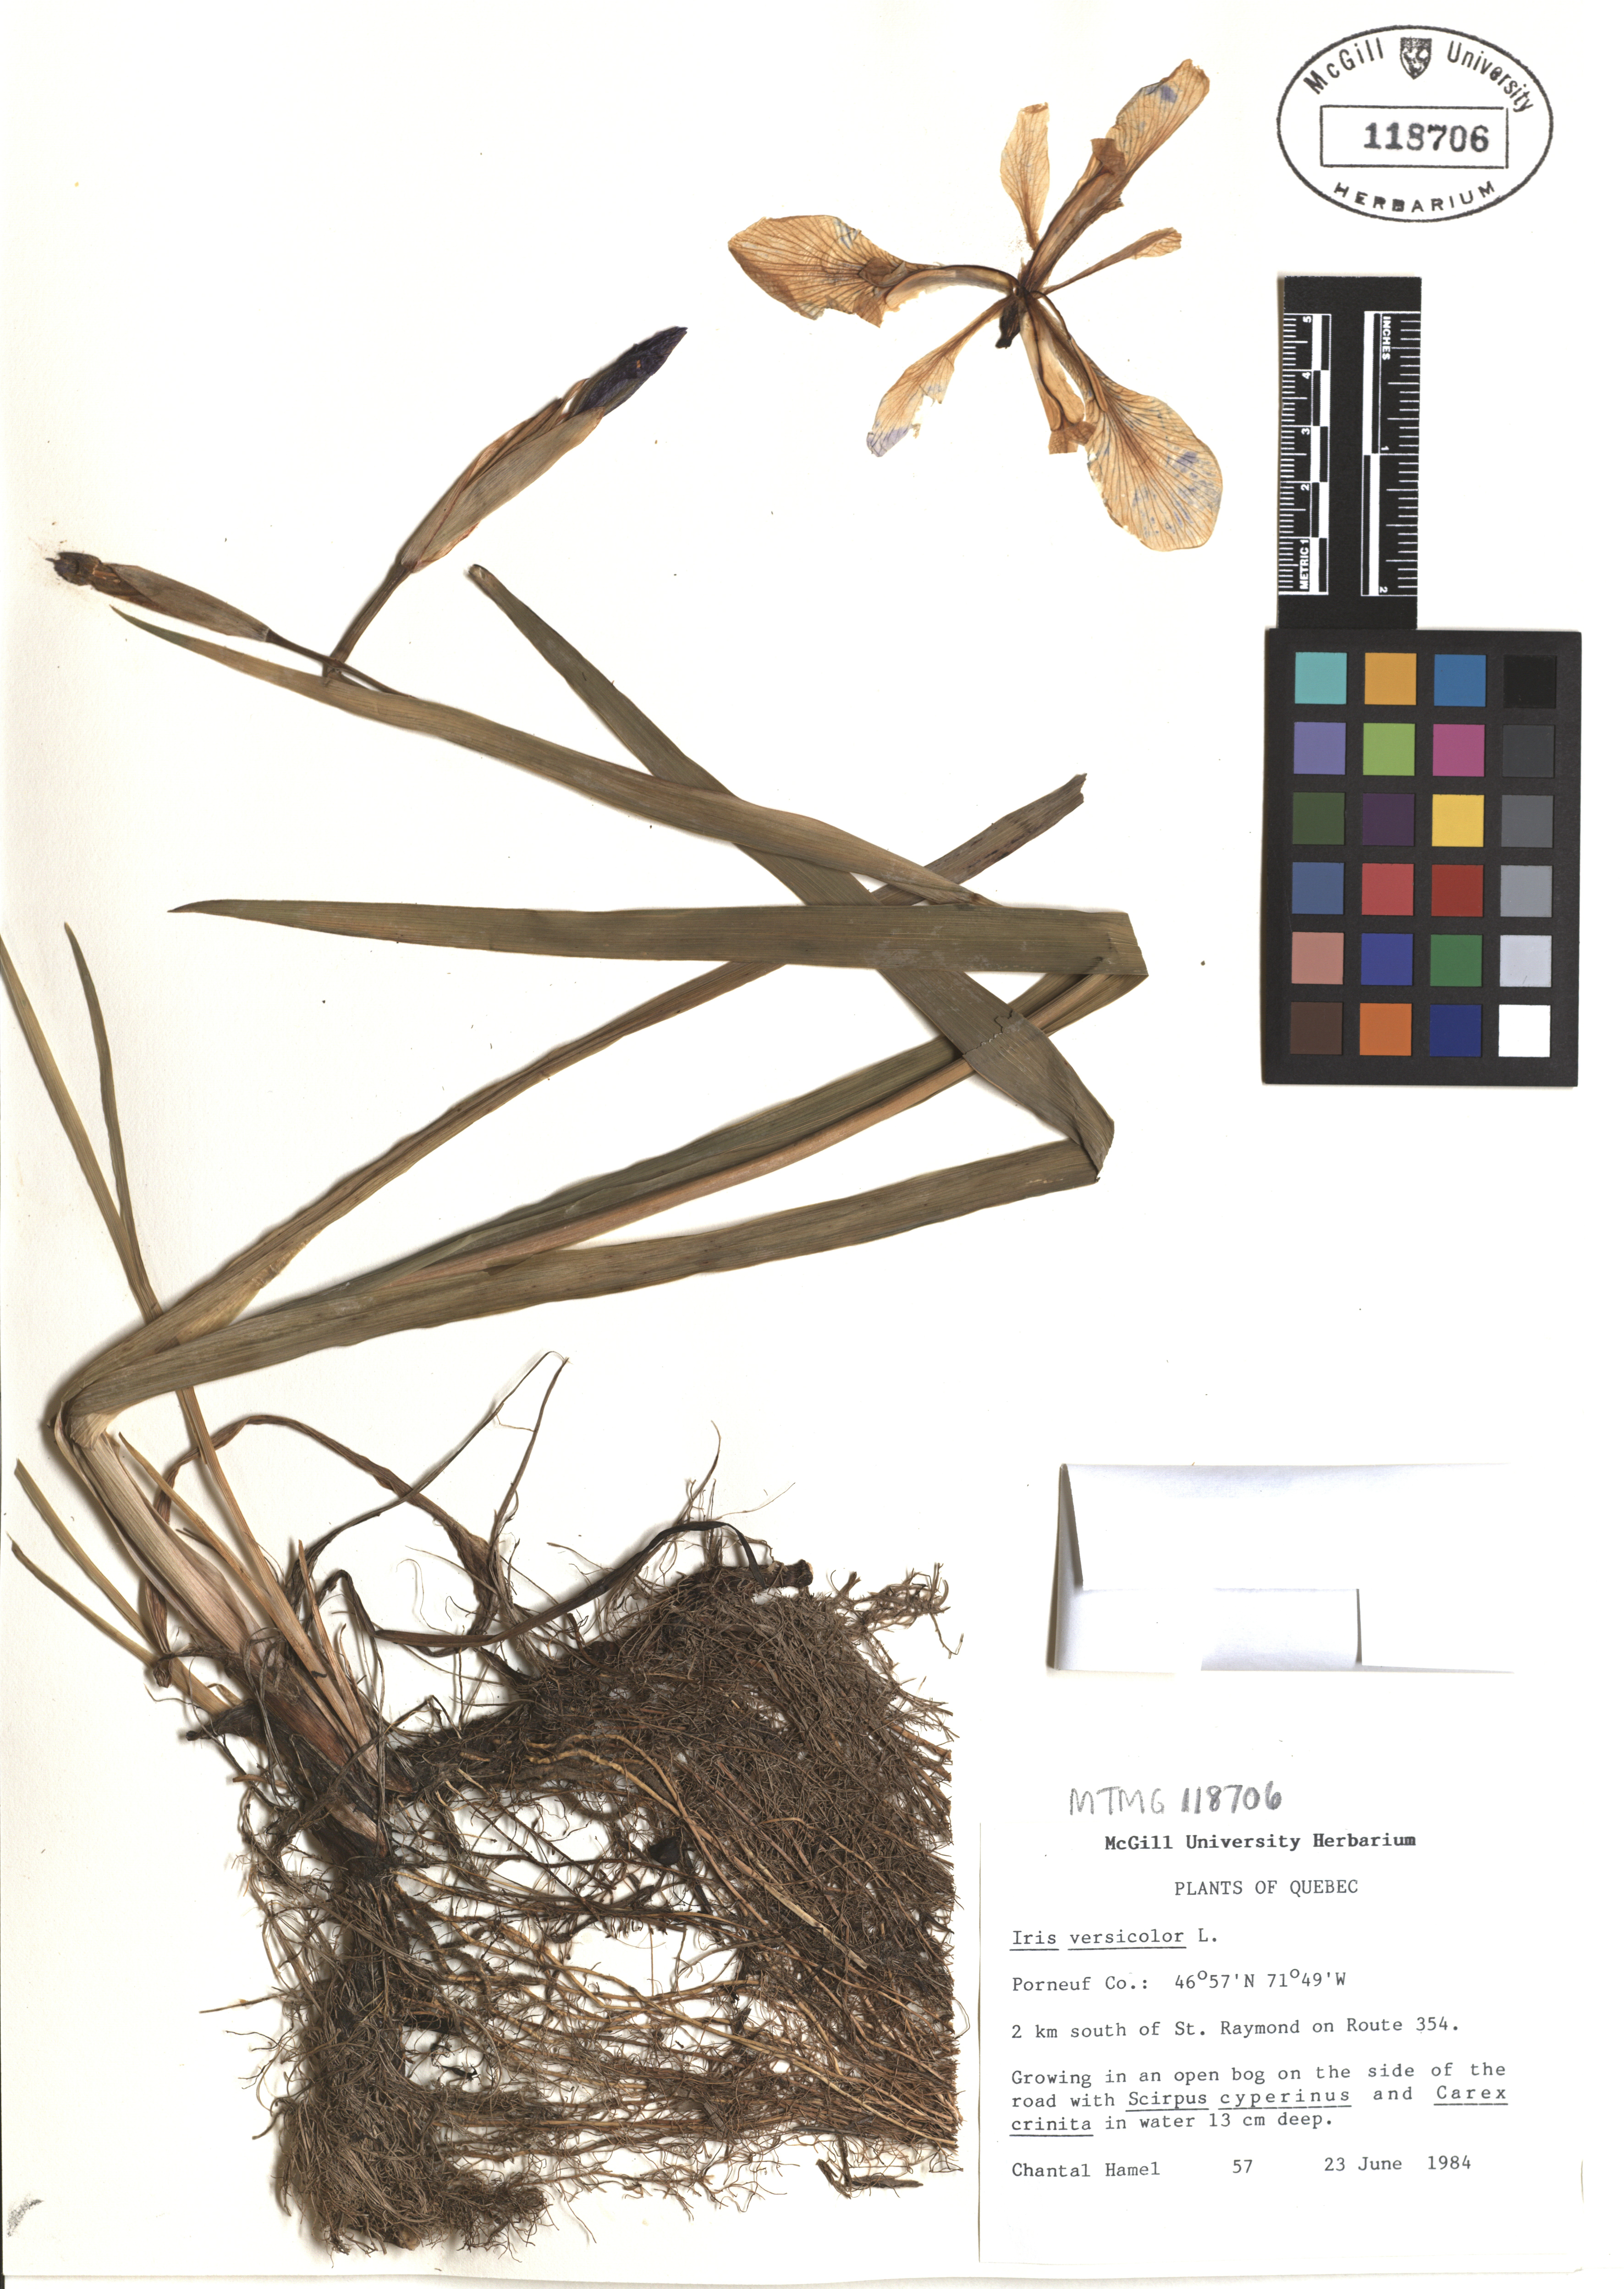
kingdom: Plantae
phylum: Tracheophyta
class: Liliopsida
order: Asparagales
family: Iridaceae
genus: Iris
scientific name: Iris versicolor
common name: Purple iris
